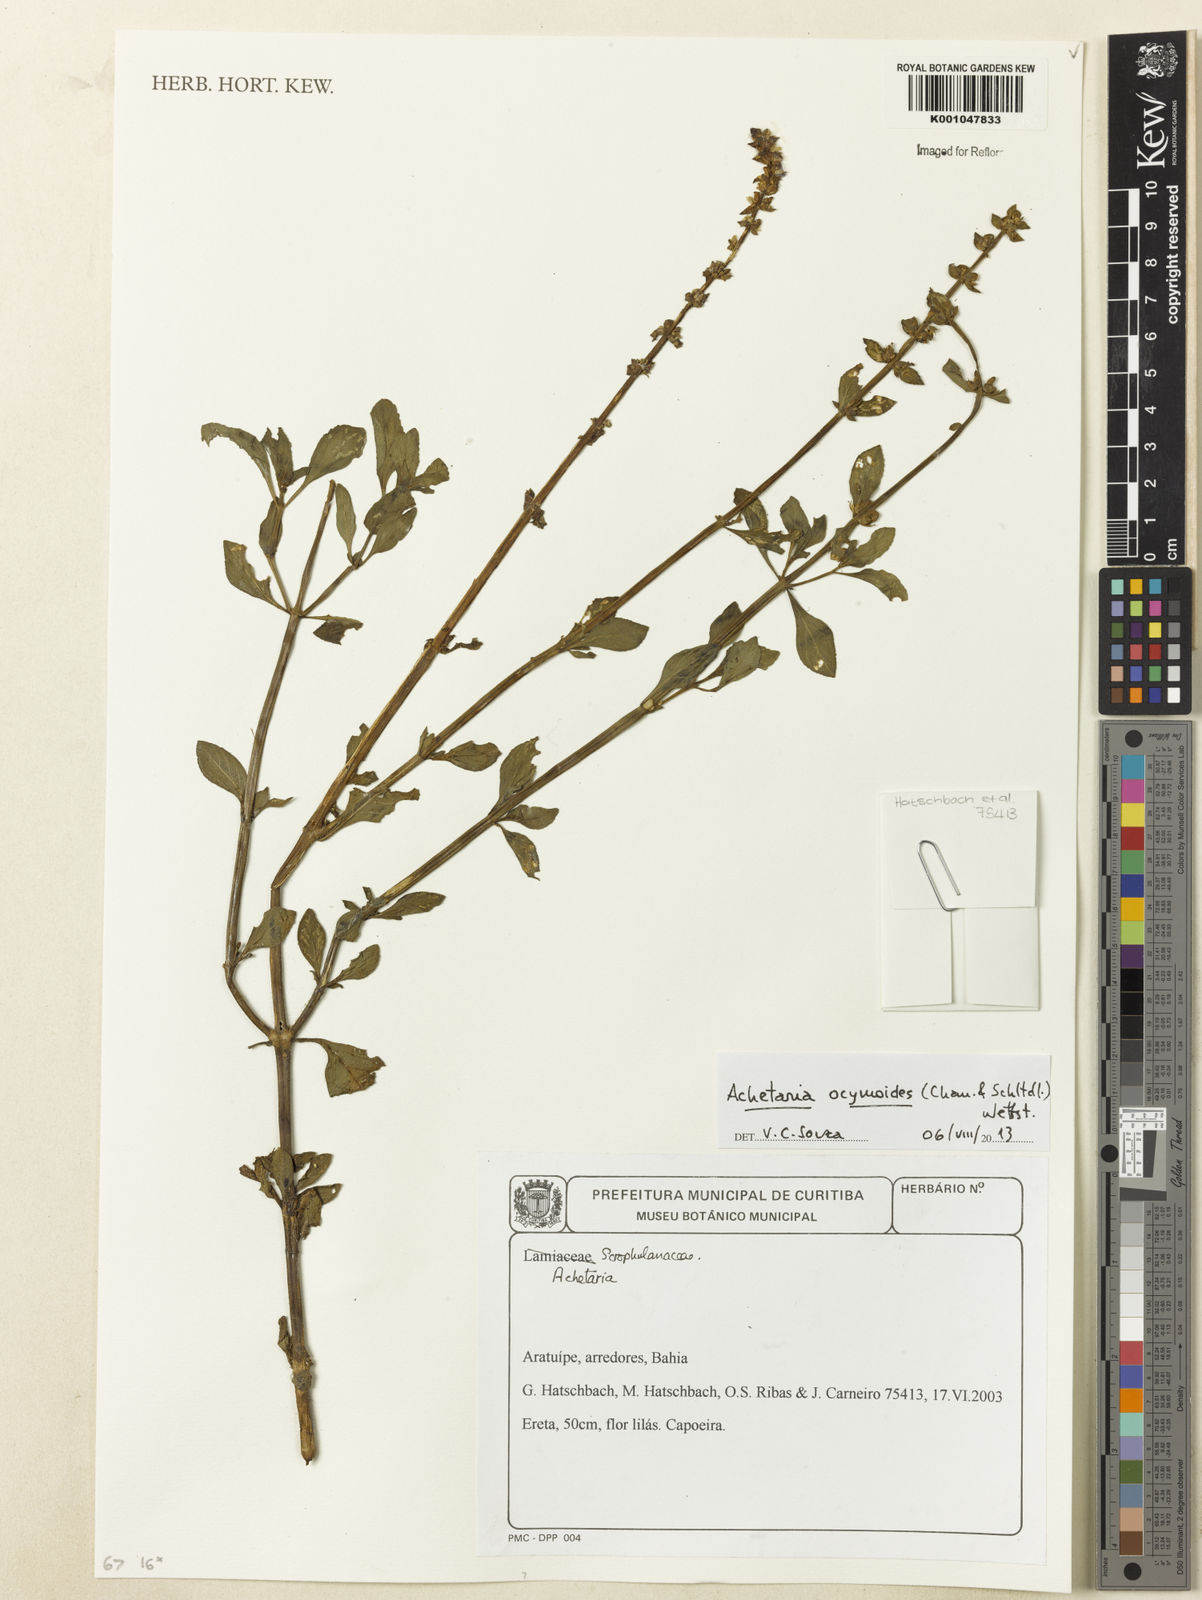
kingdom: Plantae
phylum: Tracheophyta
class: Magnoliopsida
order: Lamiales
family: Plantaginaceae
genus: Matourea
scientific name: Matourea ocymoides
